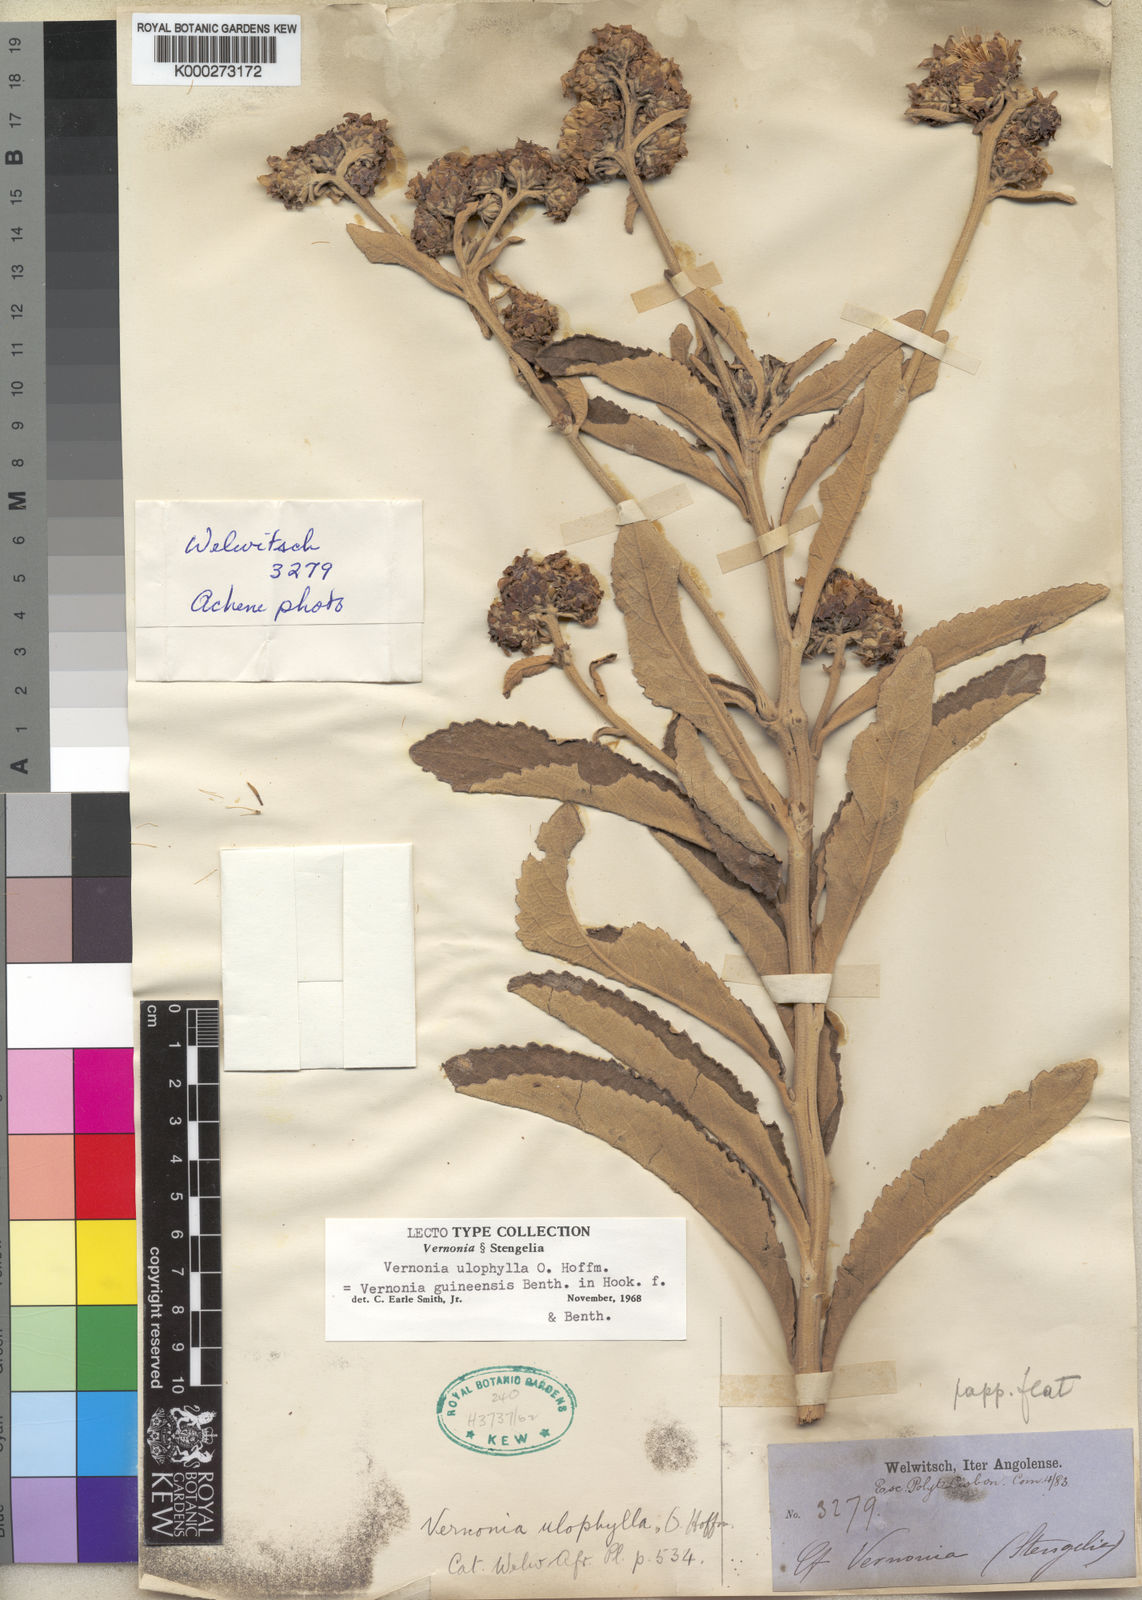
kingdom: Plantae
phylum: Tracheophyta
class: Magnoliopsida
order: Asterales
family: Asteraceae
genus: Baccharoides
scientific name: Baccharoides guineensis
